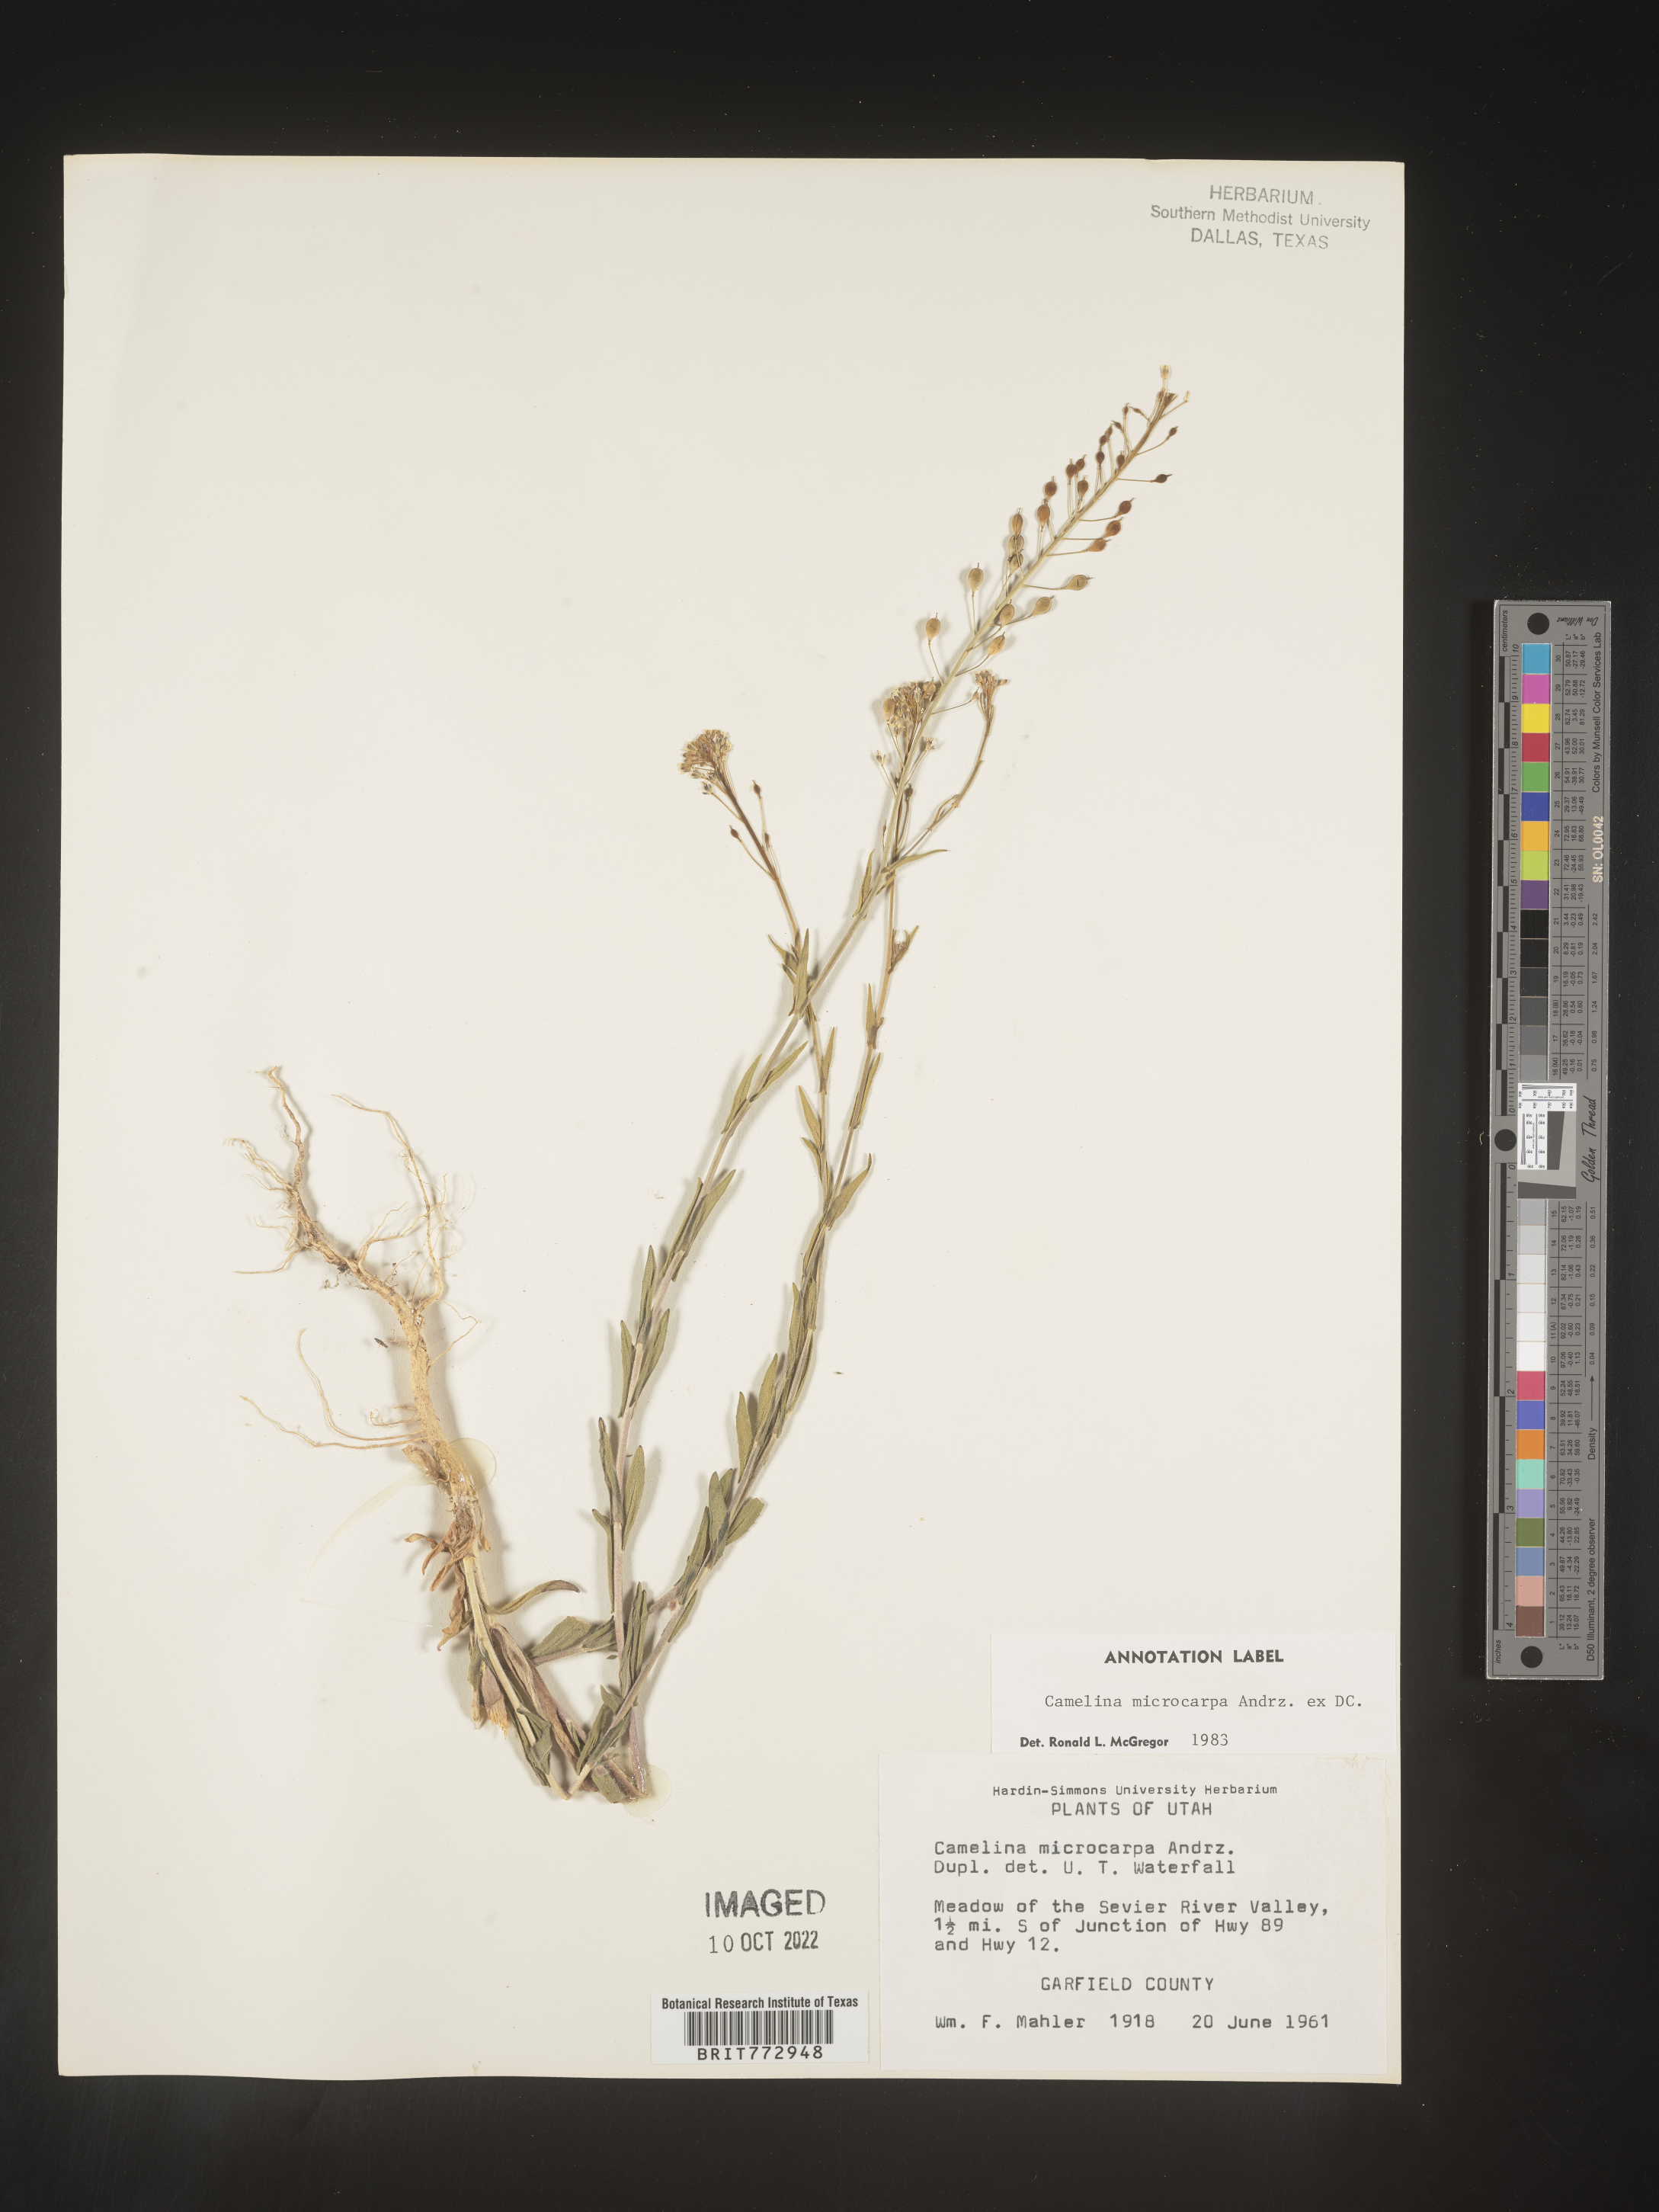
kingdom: Plantae
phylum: Tracheophyta
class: Magnoliopsida
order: Brassicales
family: Brassicaceae
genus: Camelina
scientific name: Camelina microcarpa
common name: Lesser gold-of-pleasure
